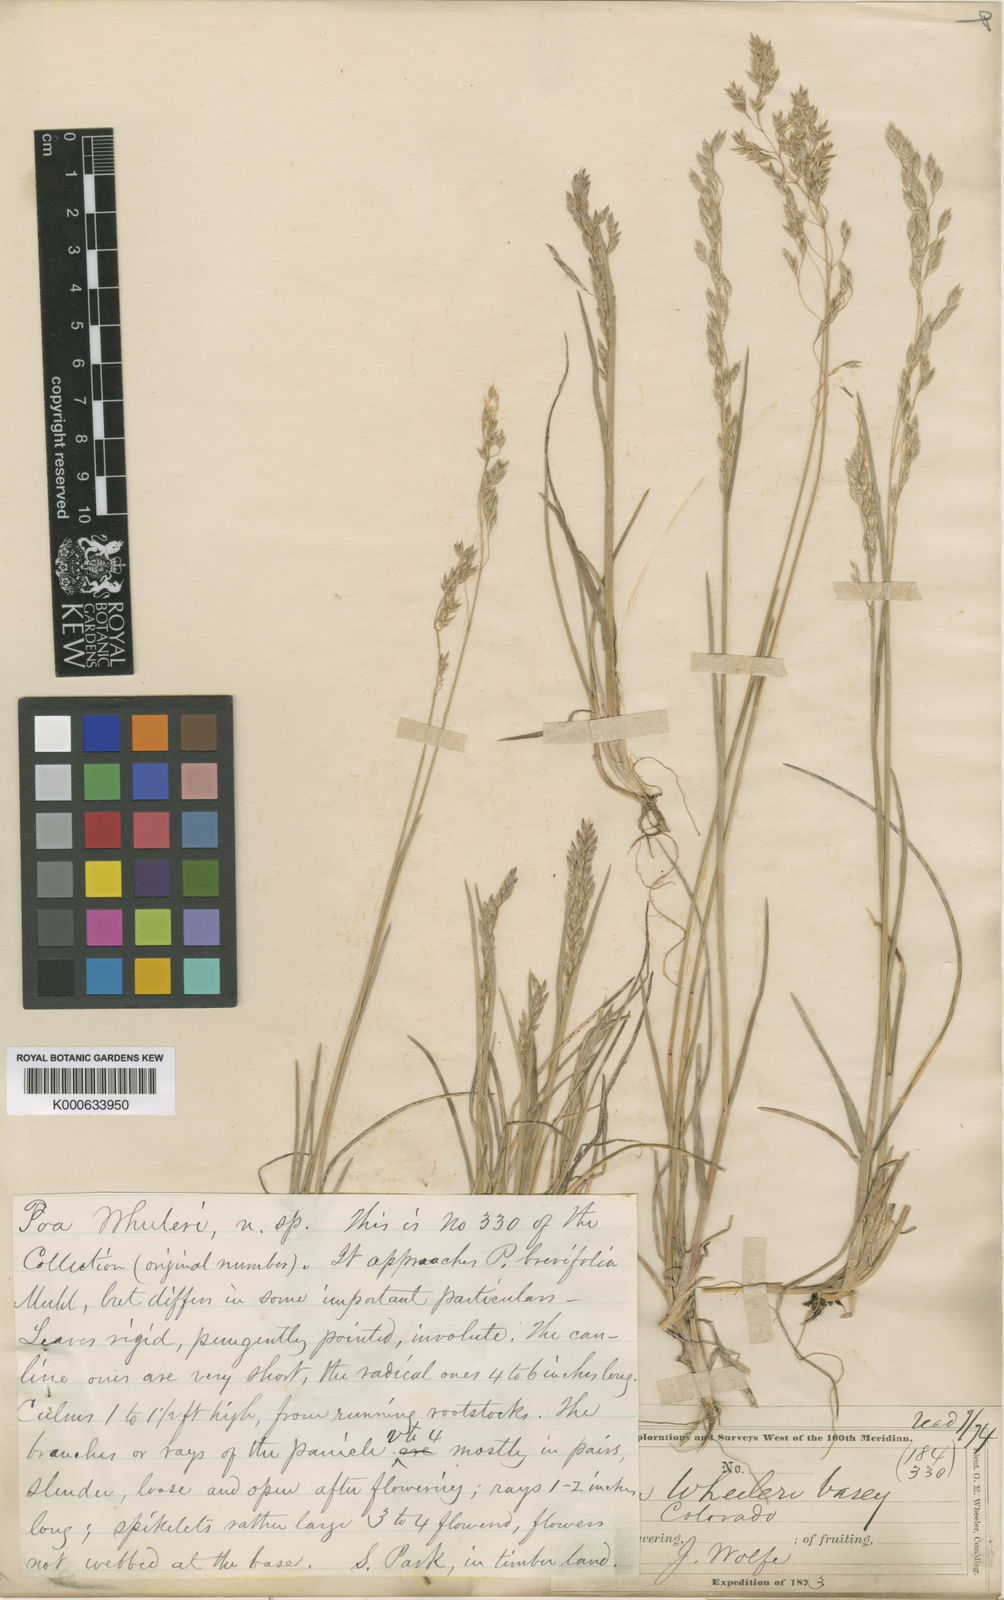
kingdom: Plantae
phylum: Tracheophyta
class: Liliopsida
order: Poales
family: Poaceae
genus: Poa
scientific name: Poa nervosa
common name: Hooker's bluegrass
